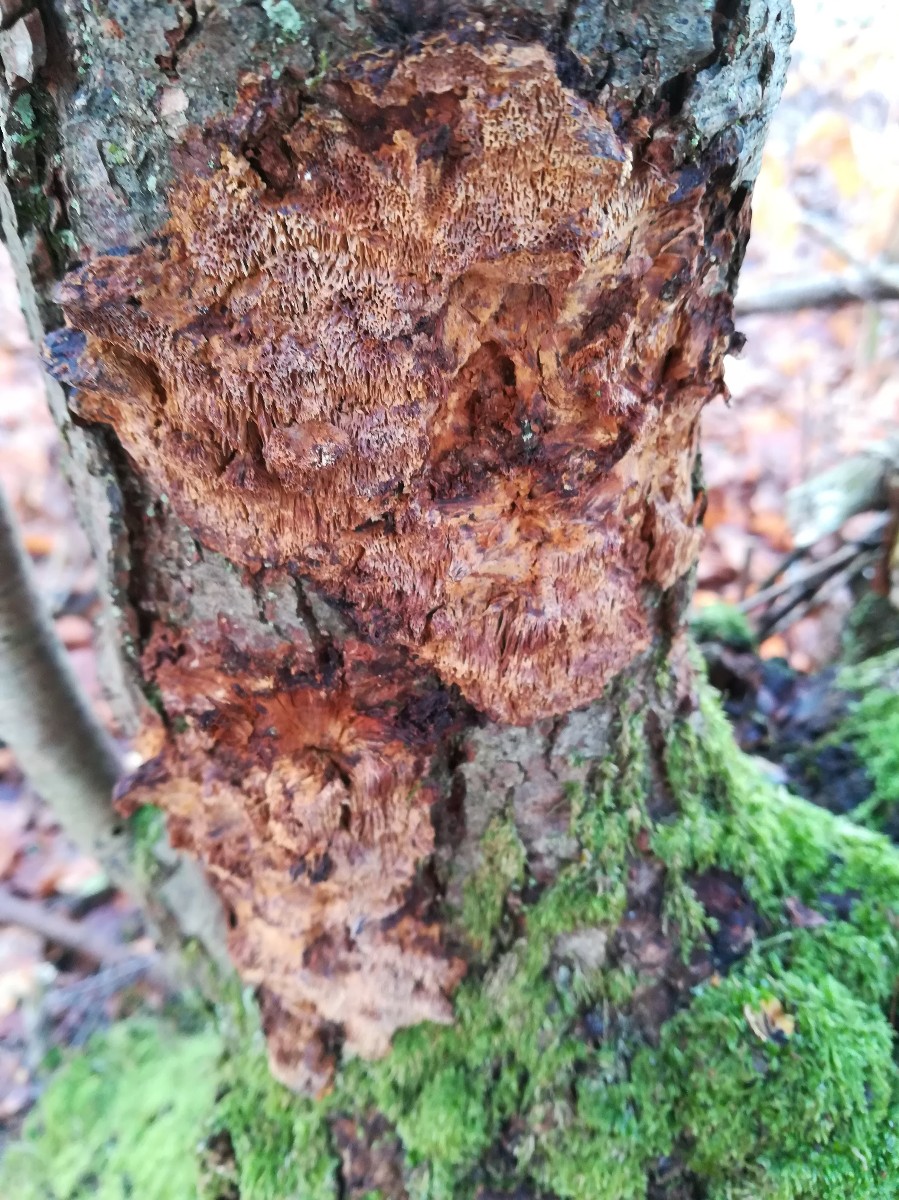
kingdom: Fungi
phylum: Basidiomycota
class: Agaricomycetes
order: Hymenochaetales
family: Hymenochaetaceae
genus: Xanthoporia
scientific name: Xanthoporia radiata
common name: elle-spejlporesvamp
